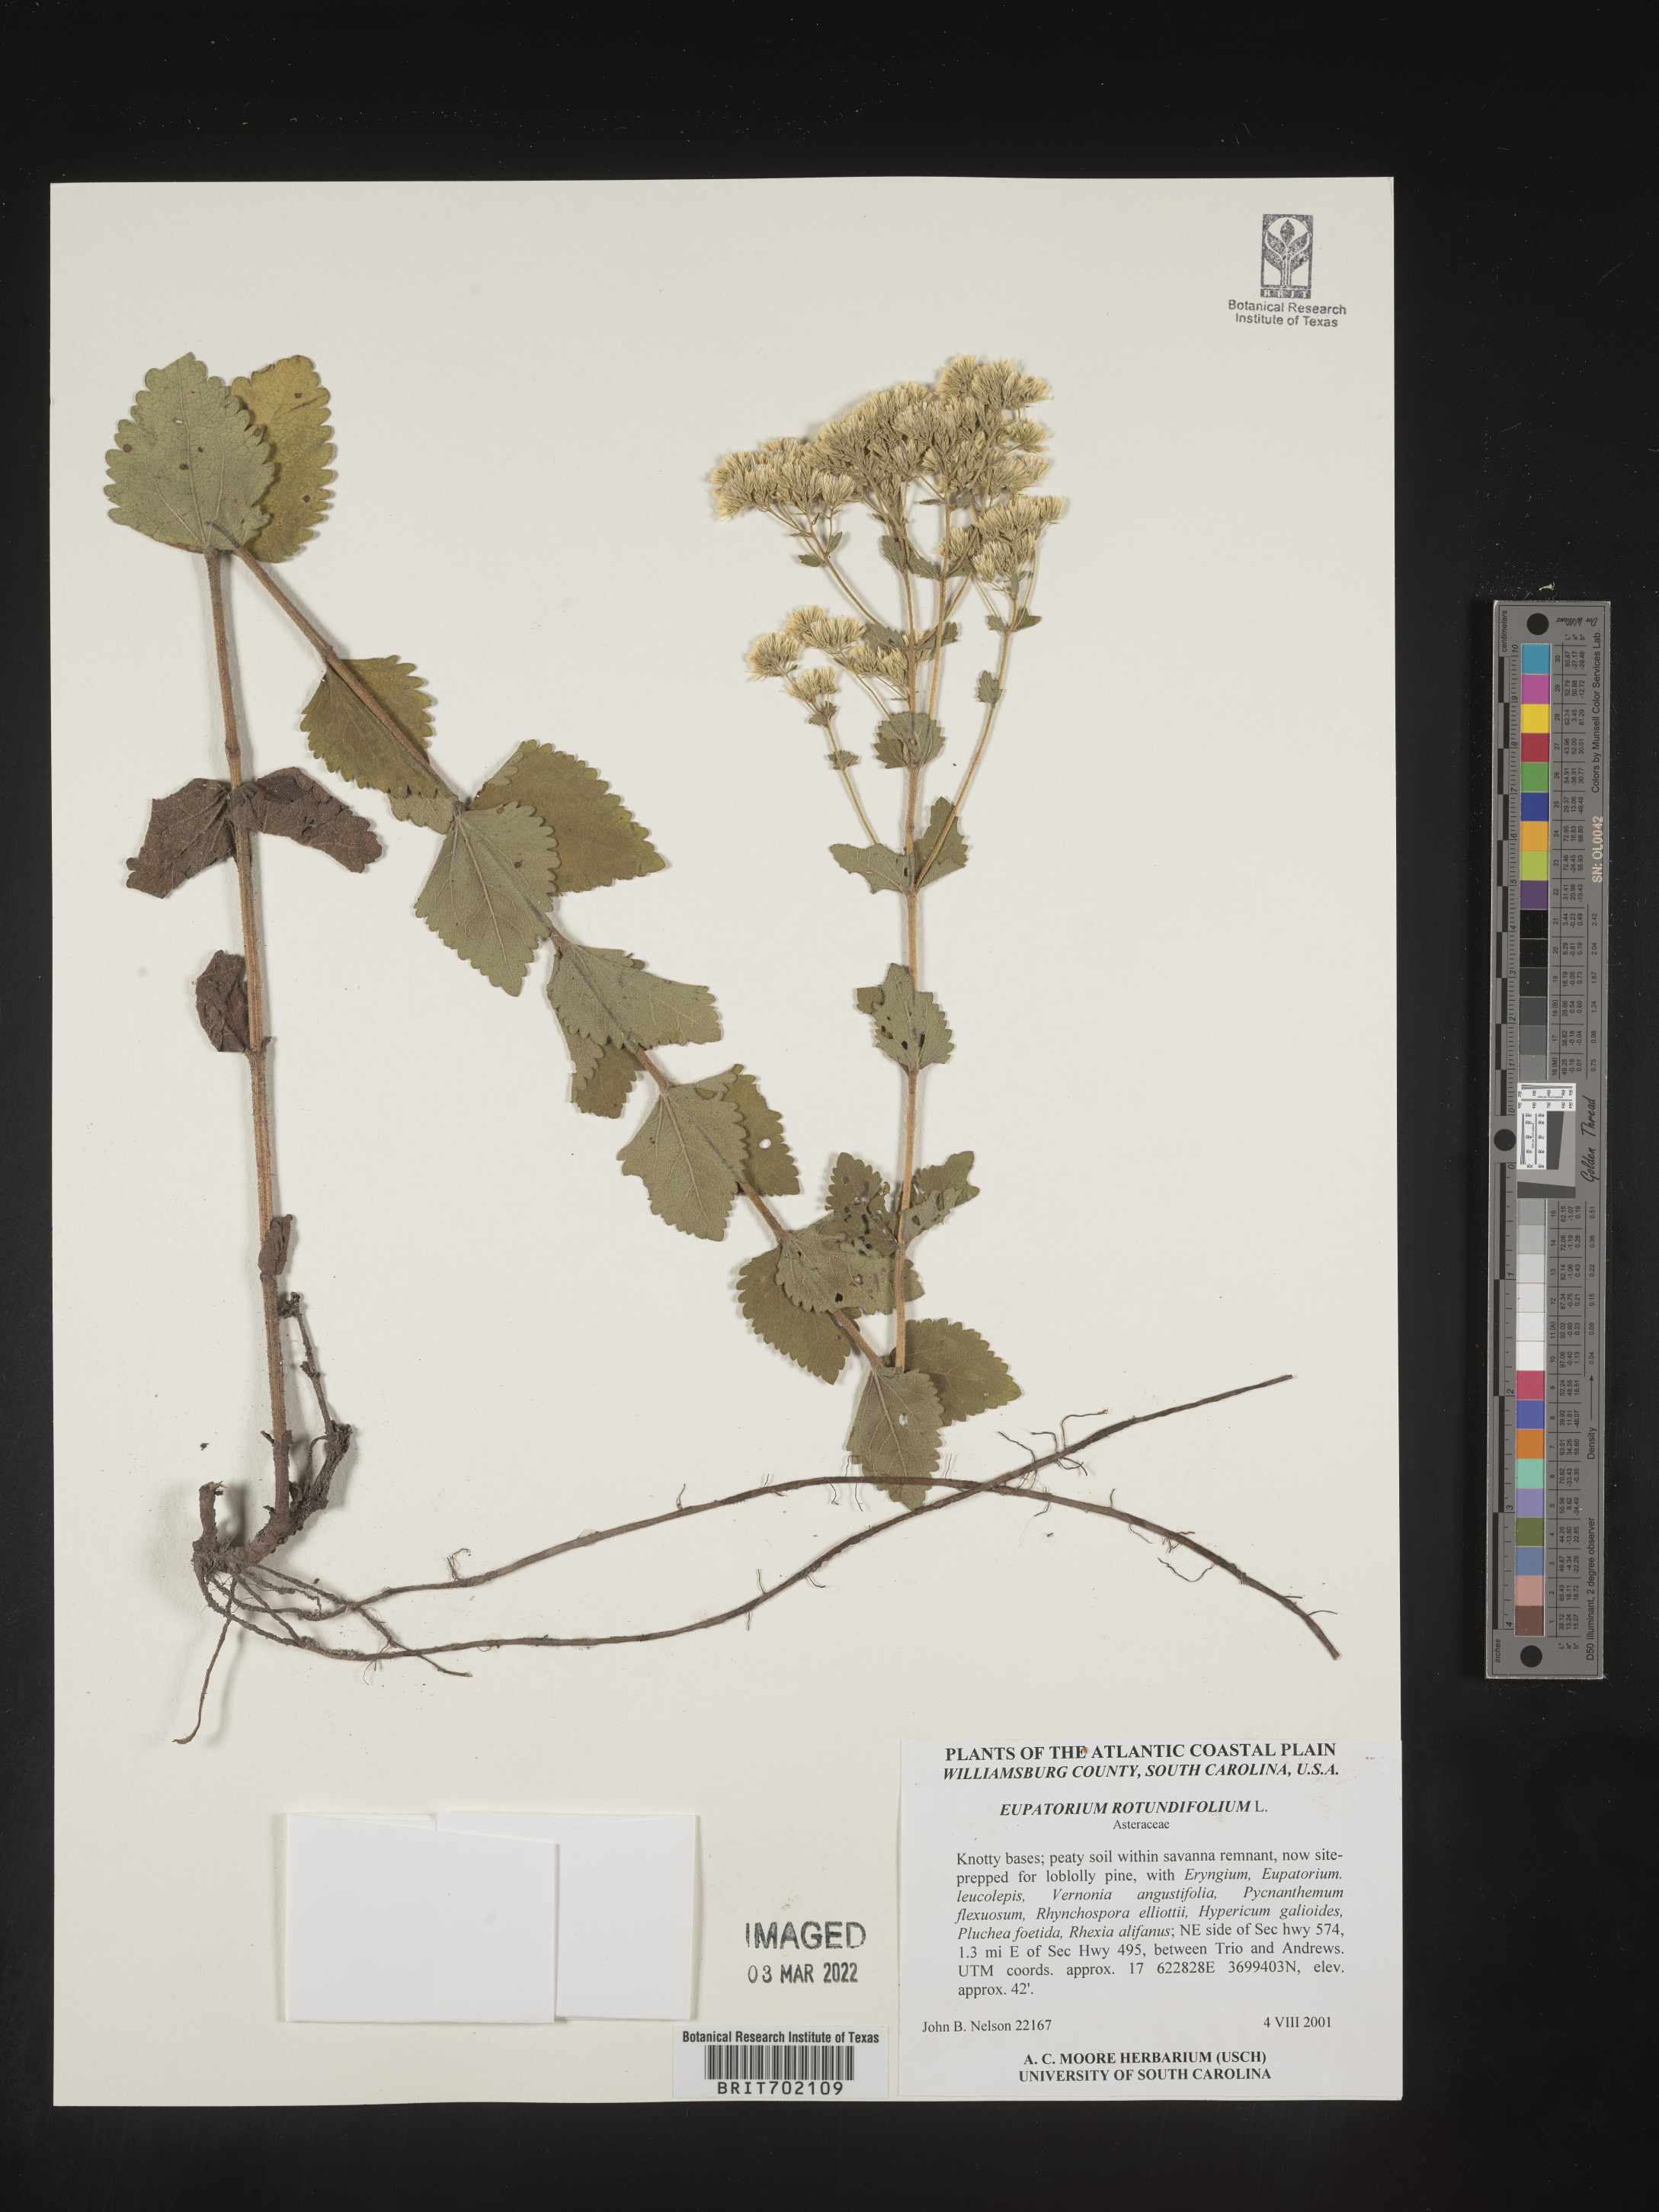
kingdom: Plantae
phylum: Tracheophyta
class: Magnoliopsida
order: Asterales
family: Asteraceae
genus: Eupatorium
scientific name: Eupatorium rotundifolium
